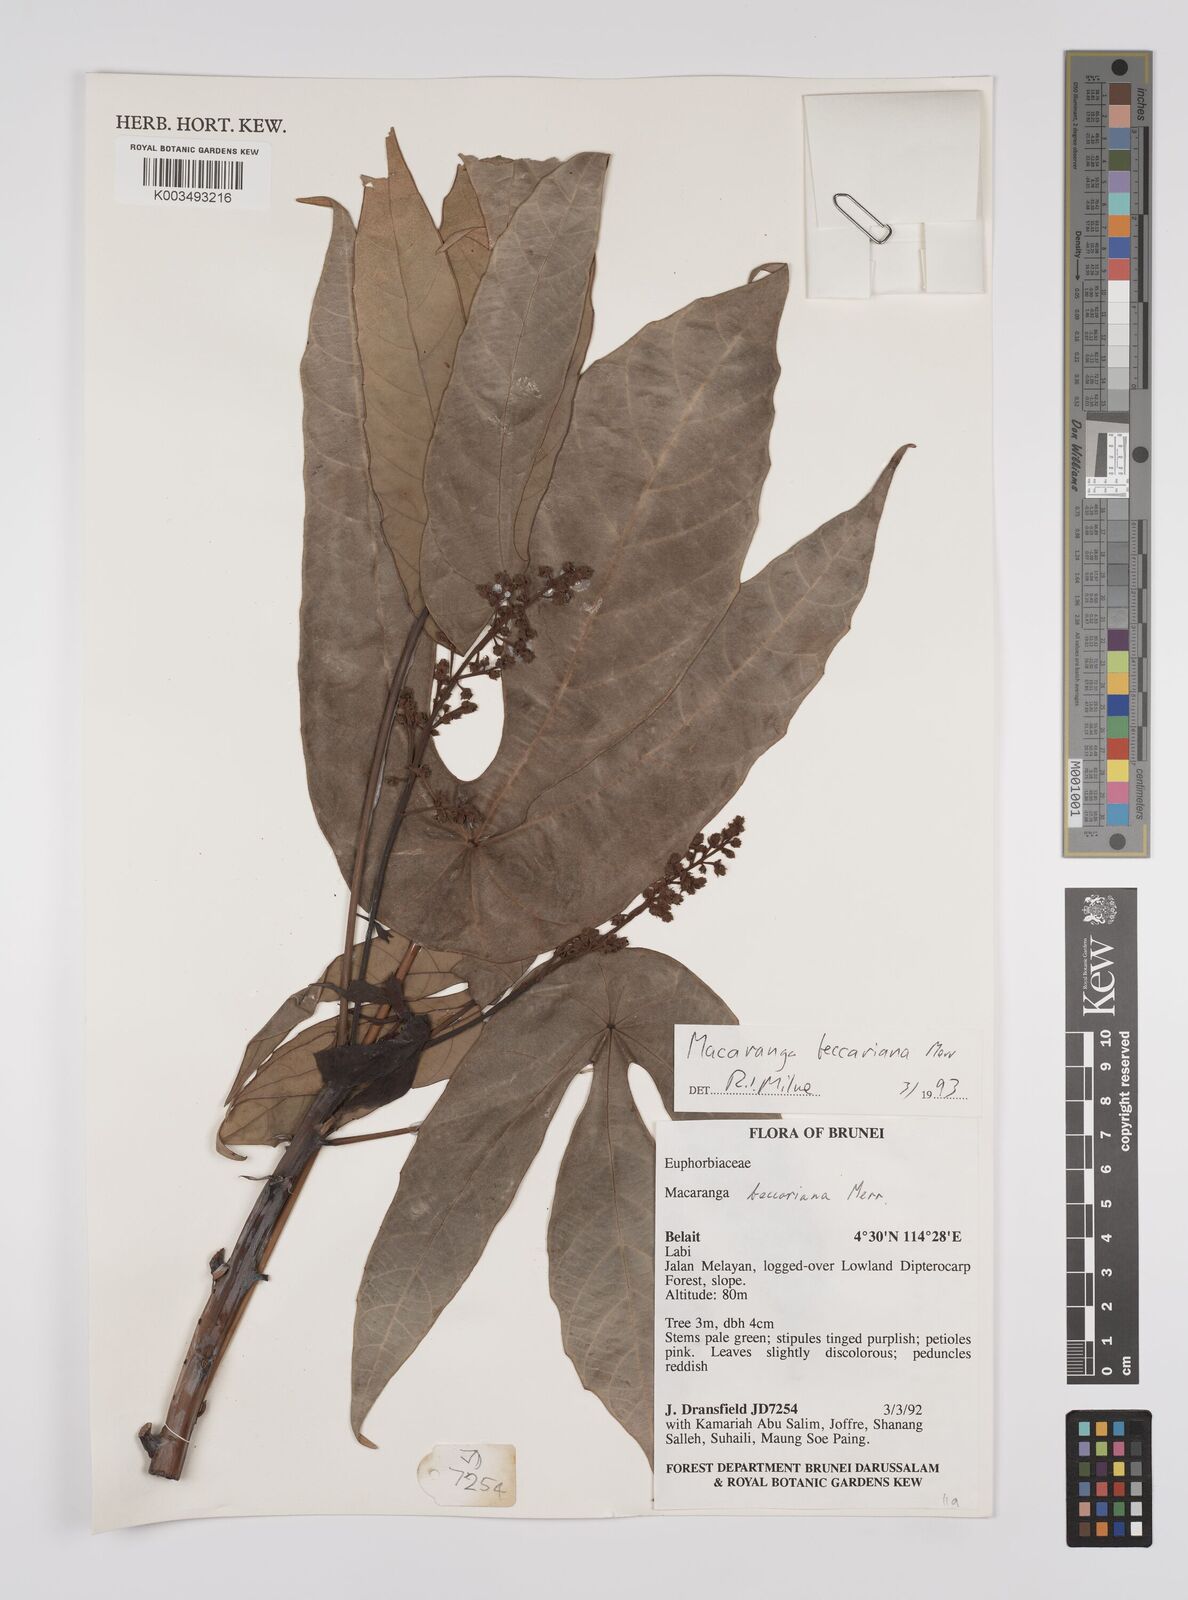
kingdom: Plantae
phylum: Tracheophyta
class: Magnoliopsida
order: Malpighiales
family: Euphorbiaceae
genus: Macaranga
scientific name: Macaranga beccariana
